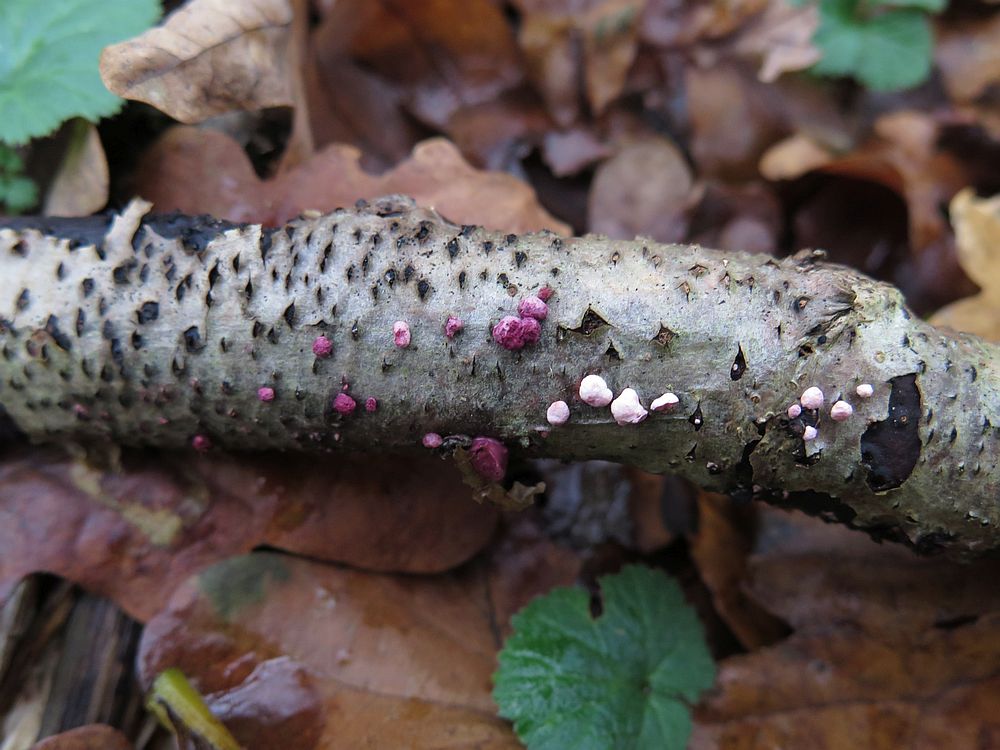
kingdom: Fungi
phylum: Ascomycota
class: Sordariomycetes
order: Hypocreales
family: Hypocreaceae
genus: Trichoderma
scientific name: Trichoderma europaeum
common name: rosabrun kødkerne
